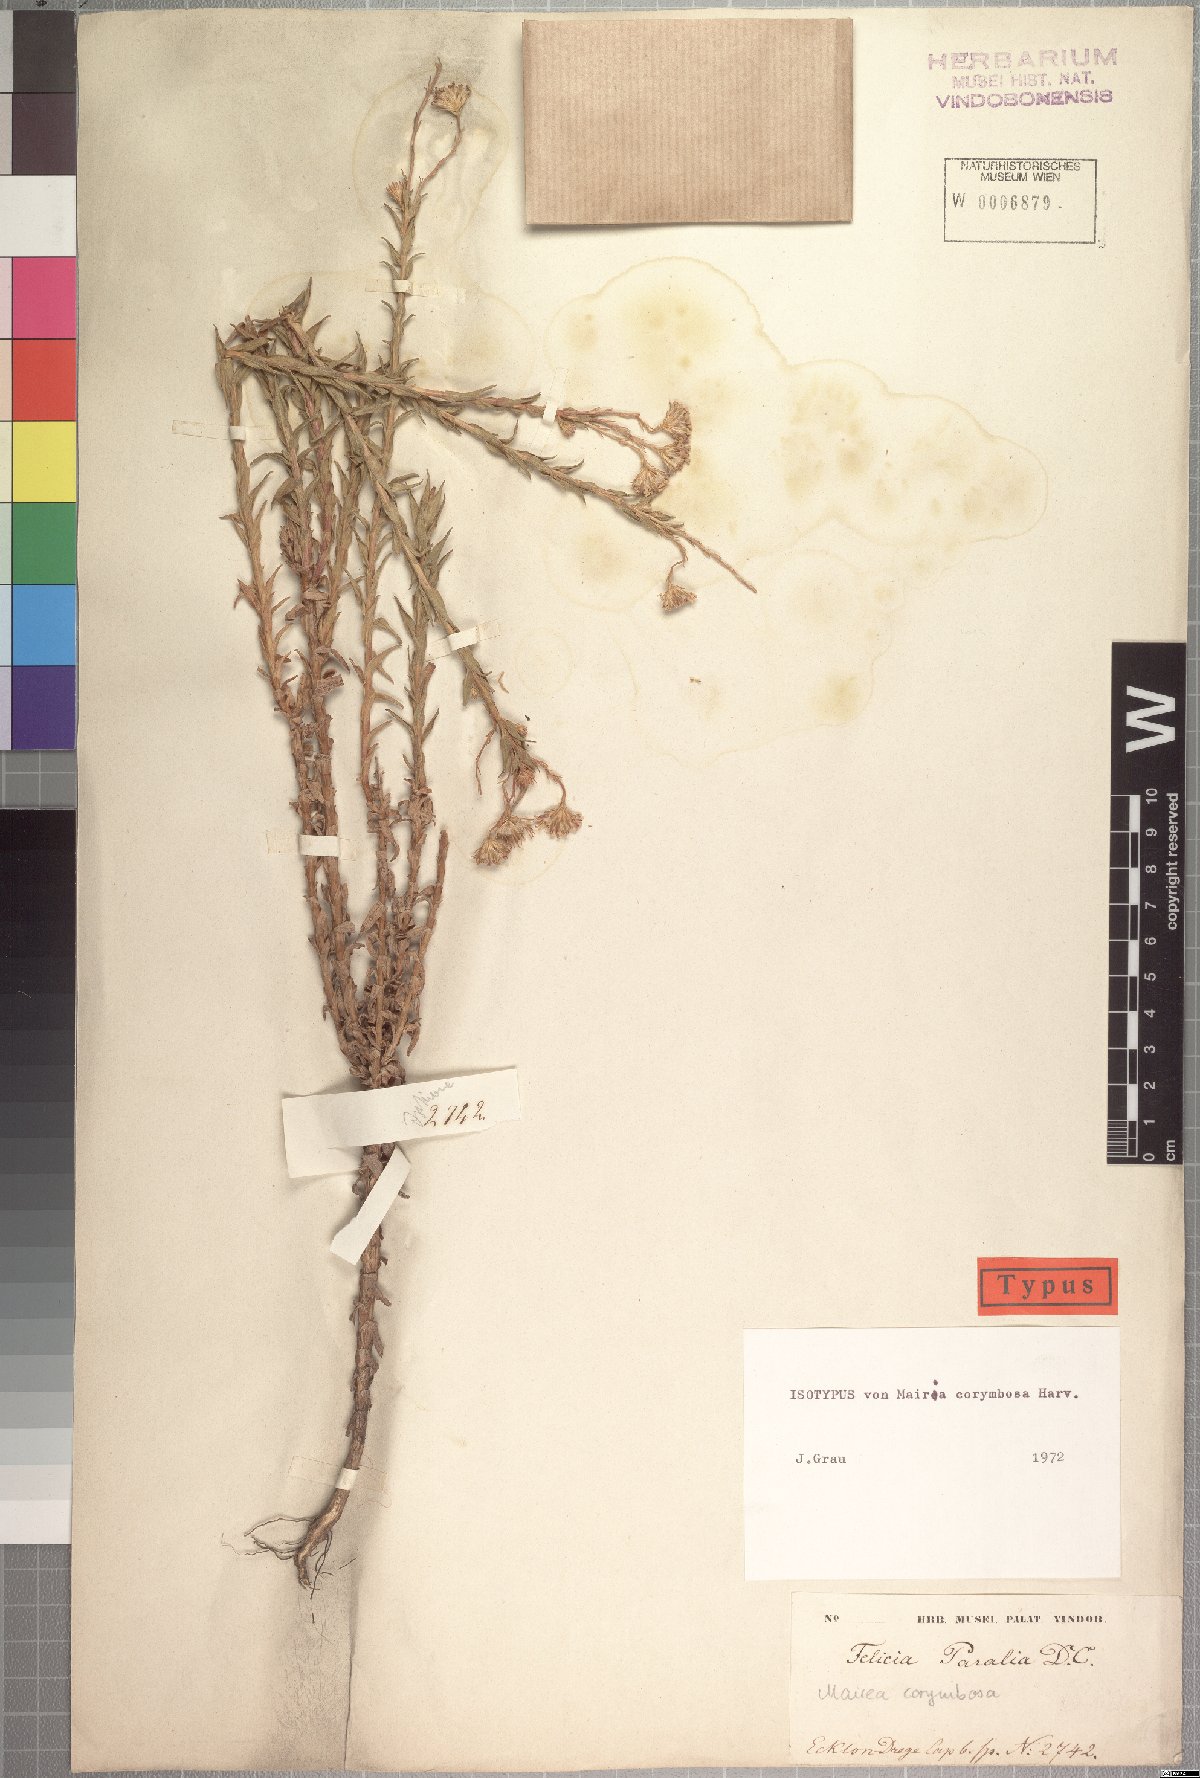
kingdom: Plantae
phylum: Tracheophyta
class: Magnoliopsida
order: Asterales
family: Asteraceae
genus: Zyrphelis
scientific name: Zyrphelis corymbosa
